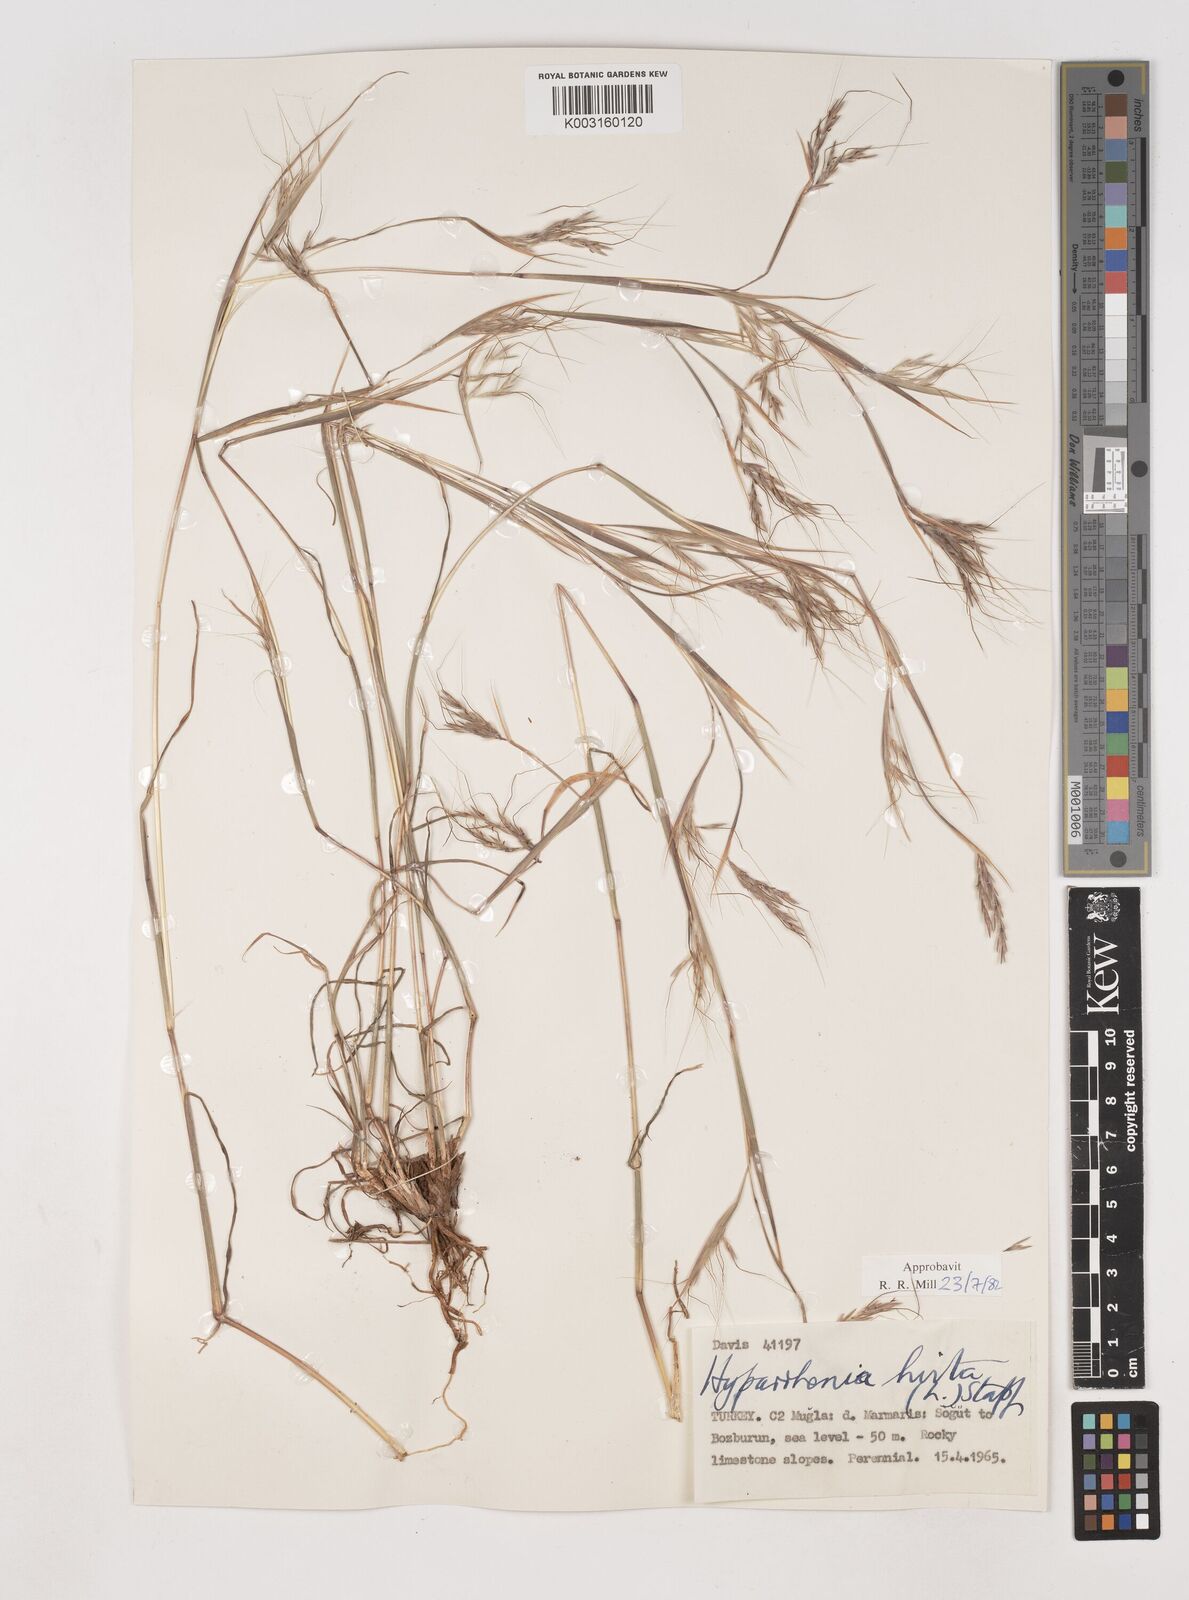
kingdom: Plantae
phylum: Tracheophyta
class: Liliopsida
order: Poales
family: Poaceae
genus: Hyparrhenia
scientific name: Hyparrhenia hirta
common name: Thatching grass
